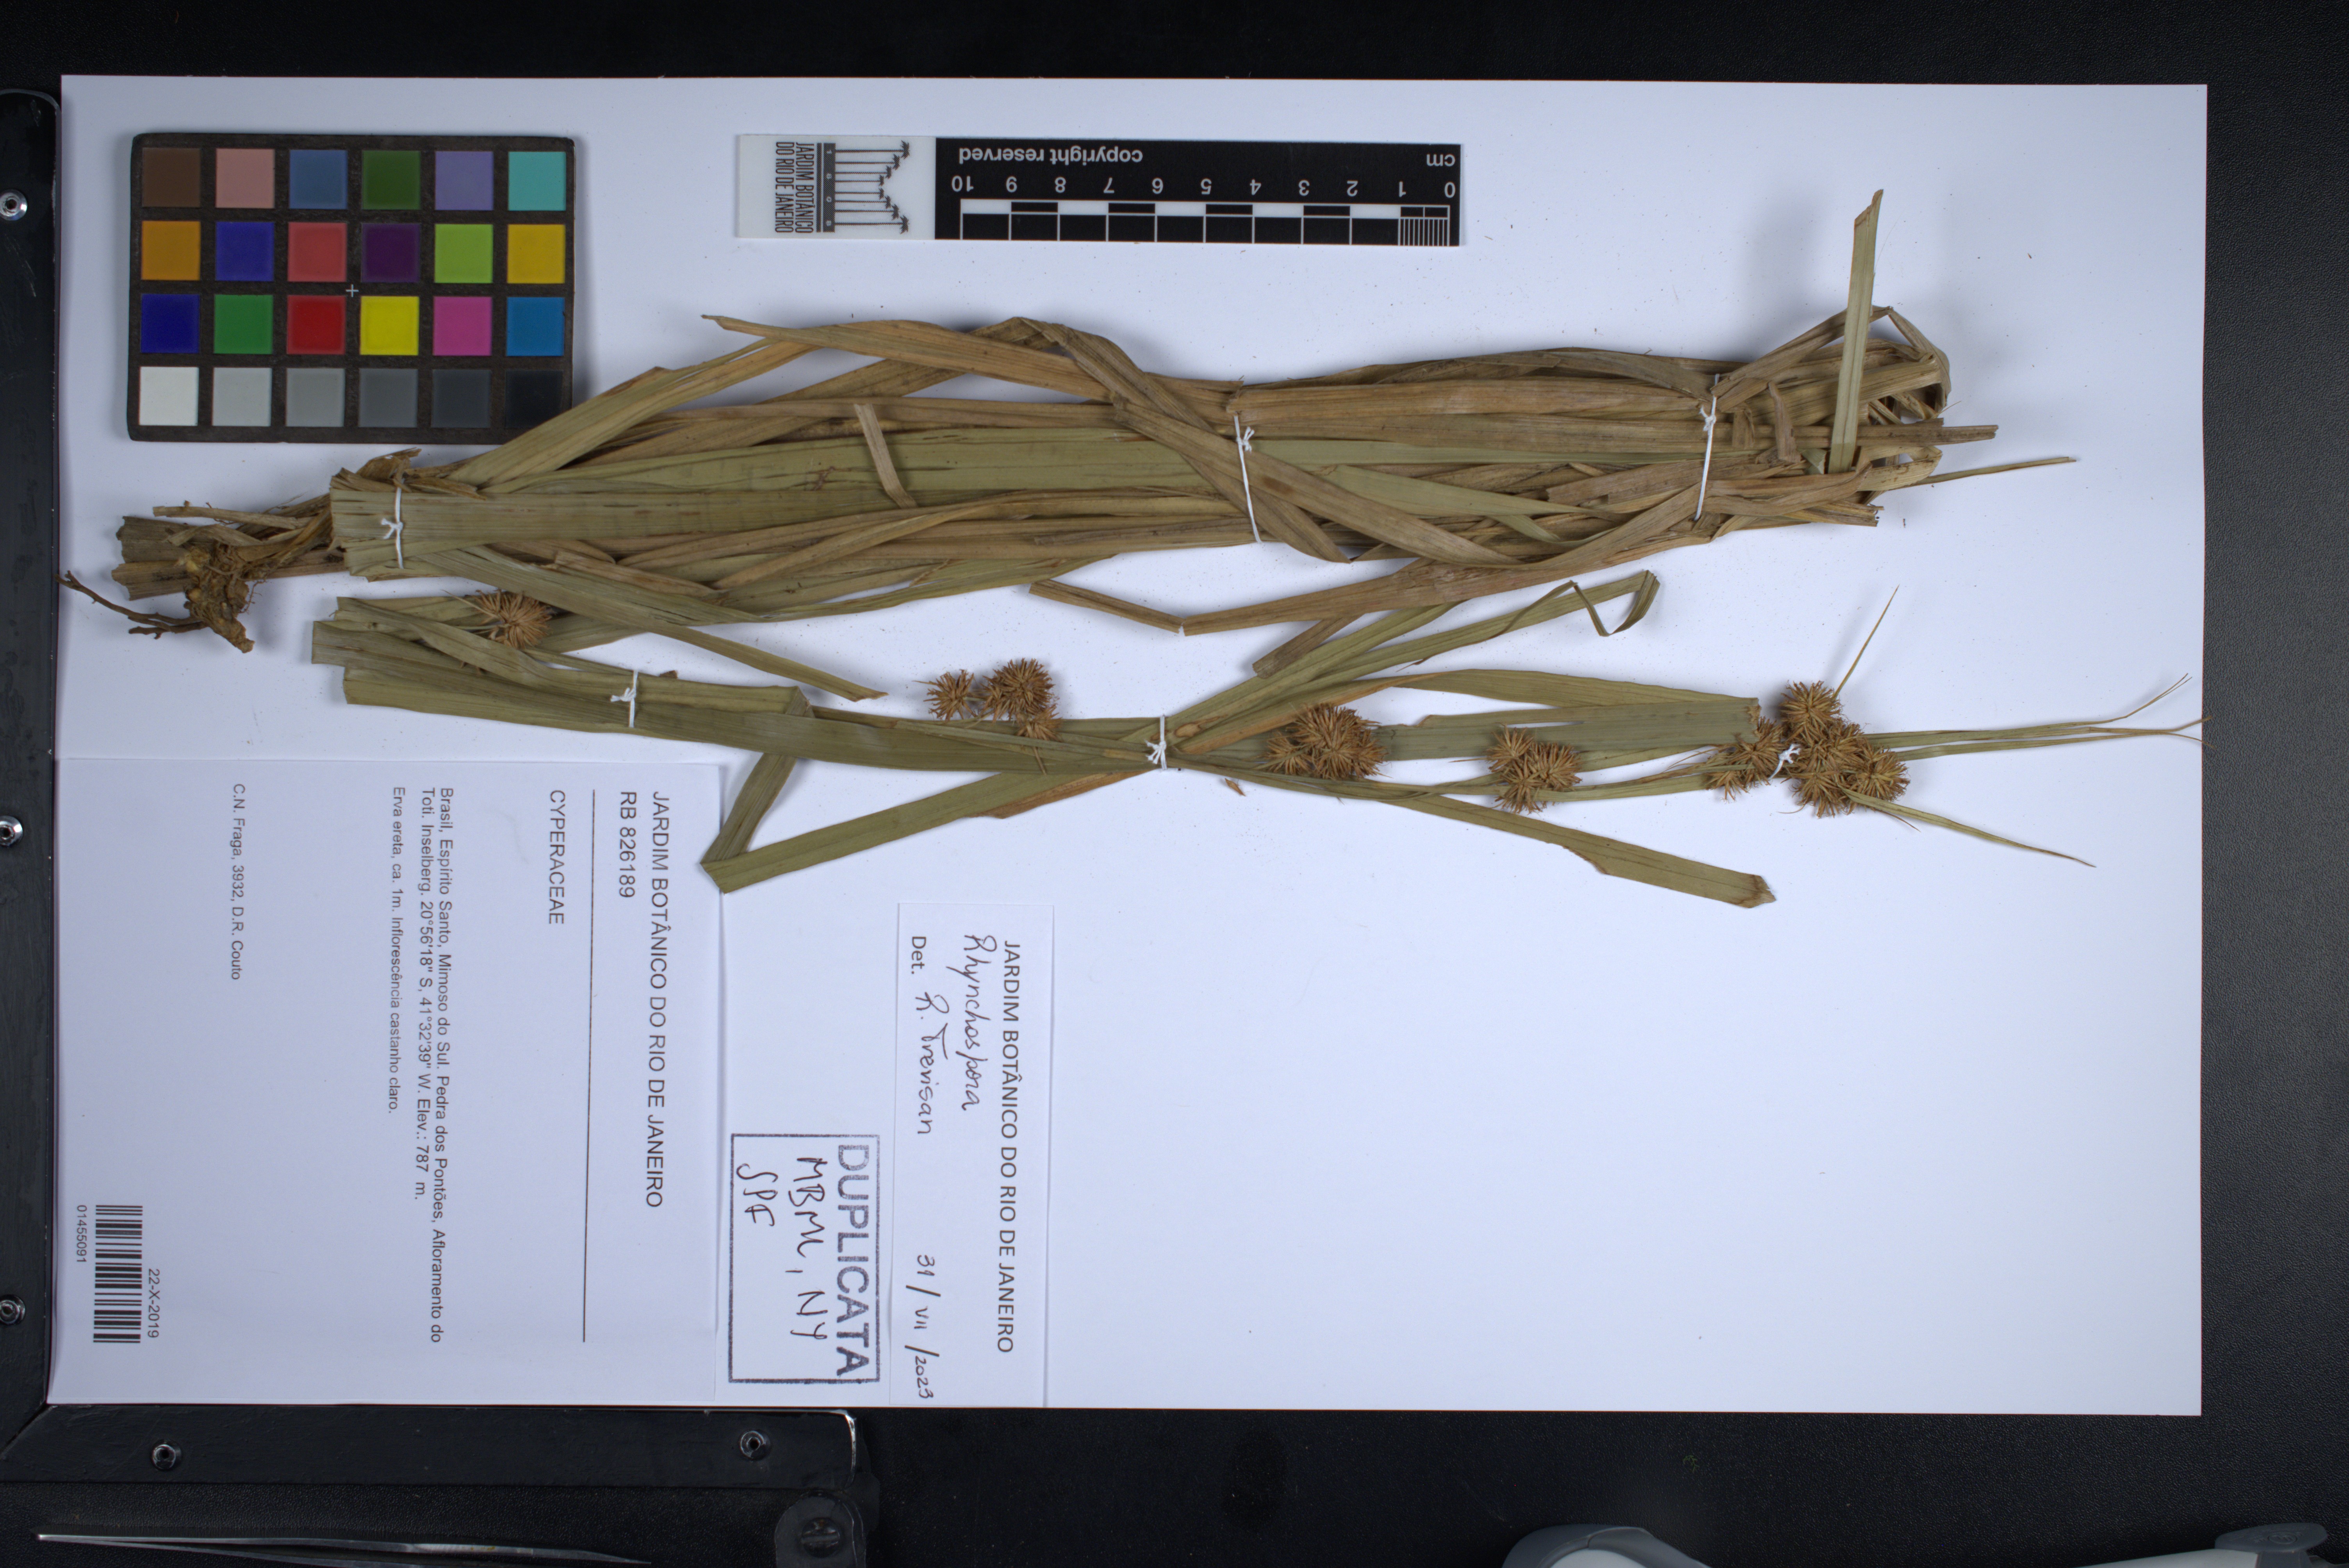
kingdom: Plantae
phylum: Tracheophyta
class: Liliopsida
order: Poales
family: Cyperaceae
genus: Rhynchospora
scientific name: Rhynchospora
